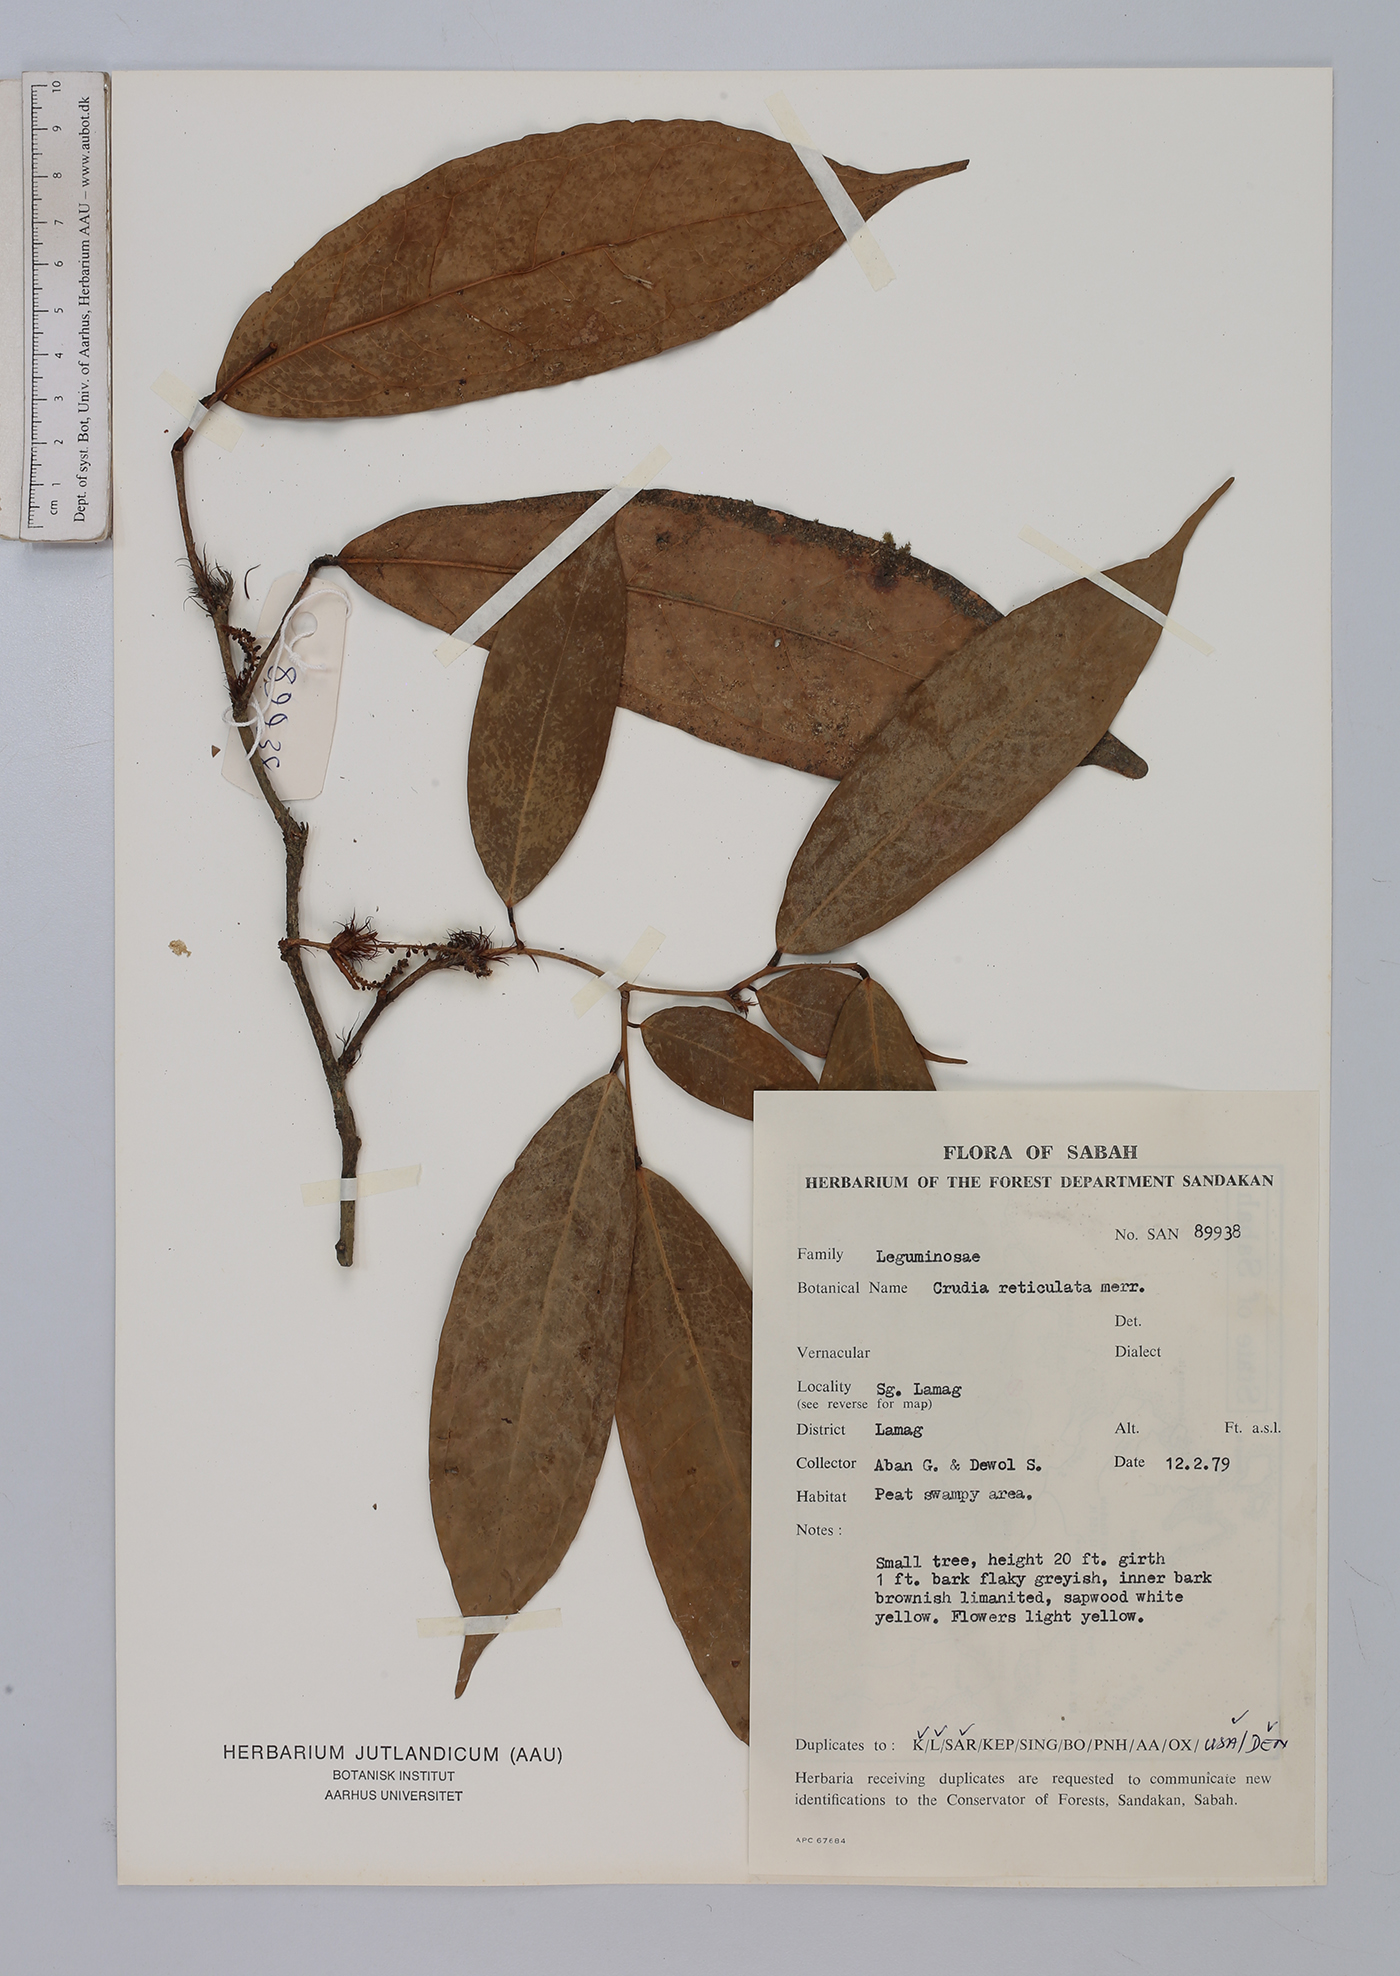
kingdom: Plantae
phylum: Tracheophyta
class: Magnoliopsida
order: Fabales
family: Fabaceae
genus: Crudia
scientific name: Crudia bantamensis
